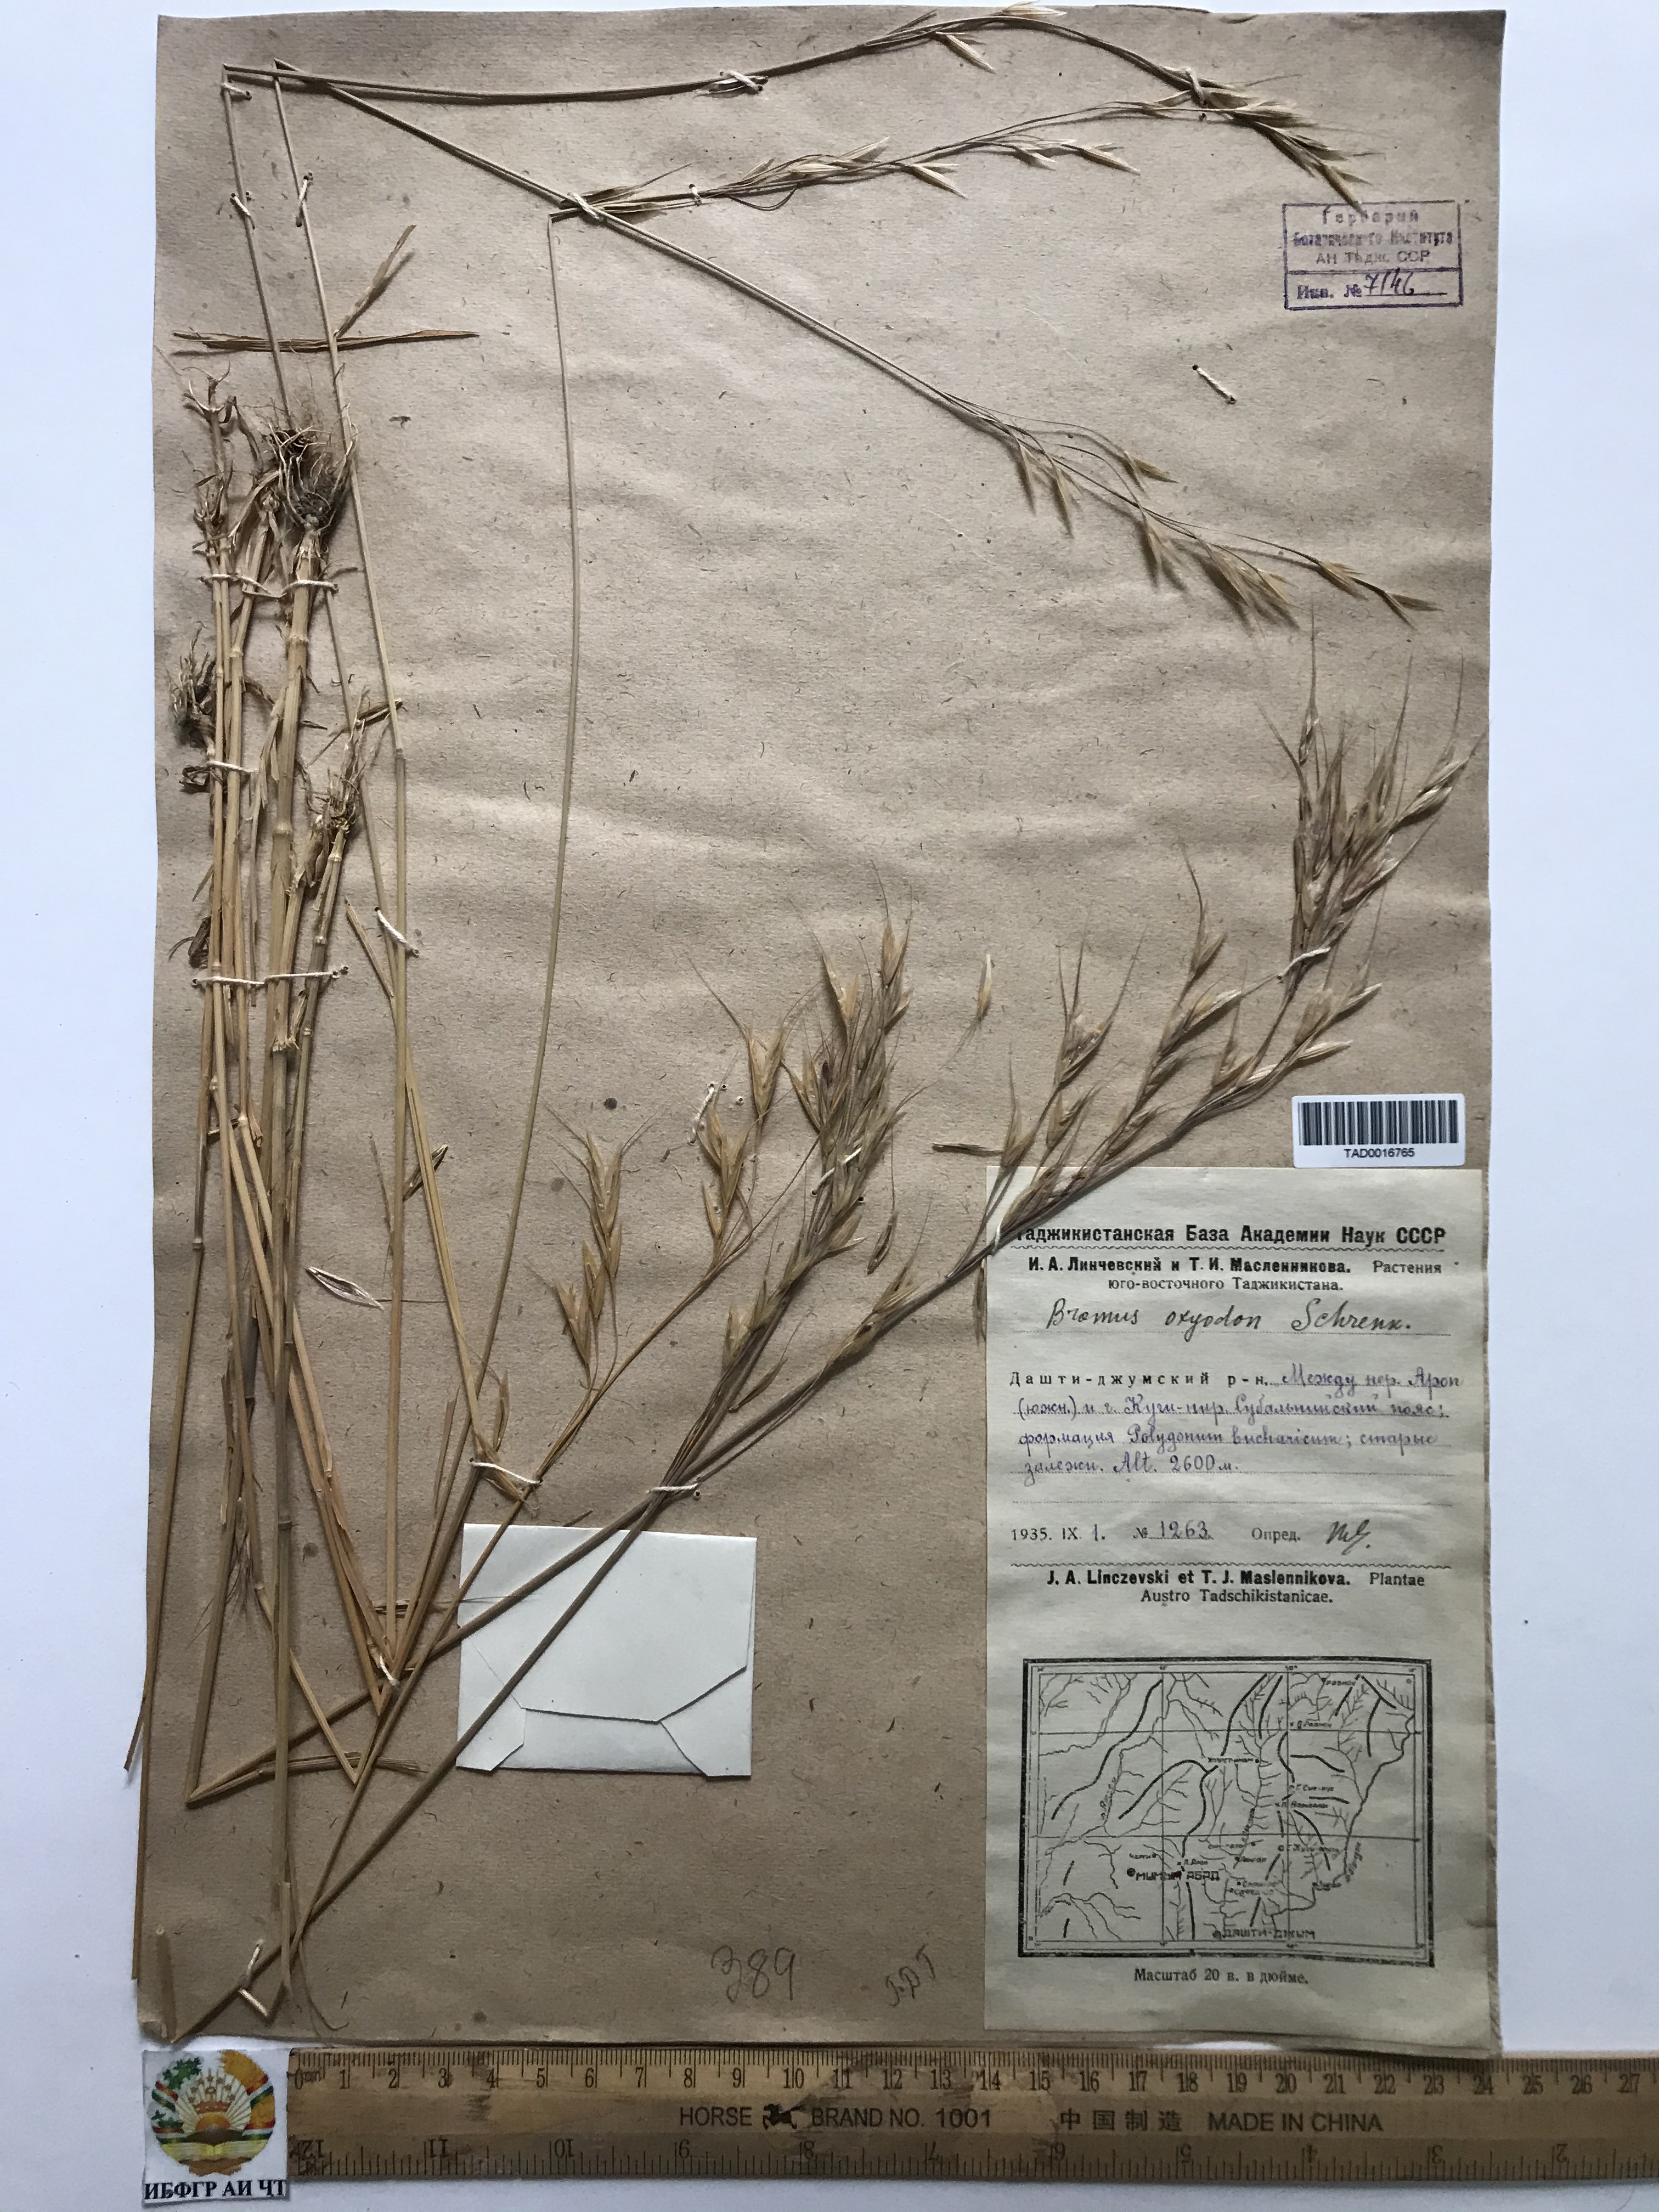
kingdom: Plantae
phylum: Tracheophyta
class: Liliopsida
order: Poales
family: Poaceae
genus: Bromus
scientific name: Bromus oxyodon
